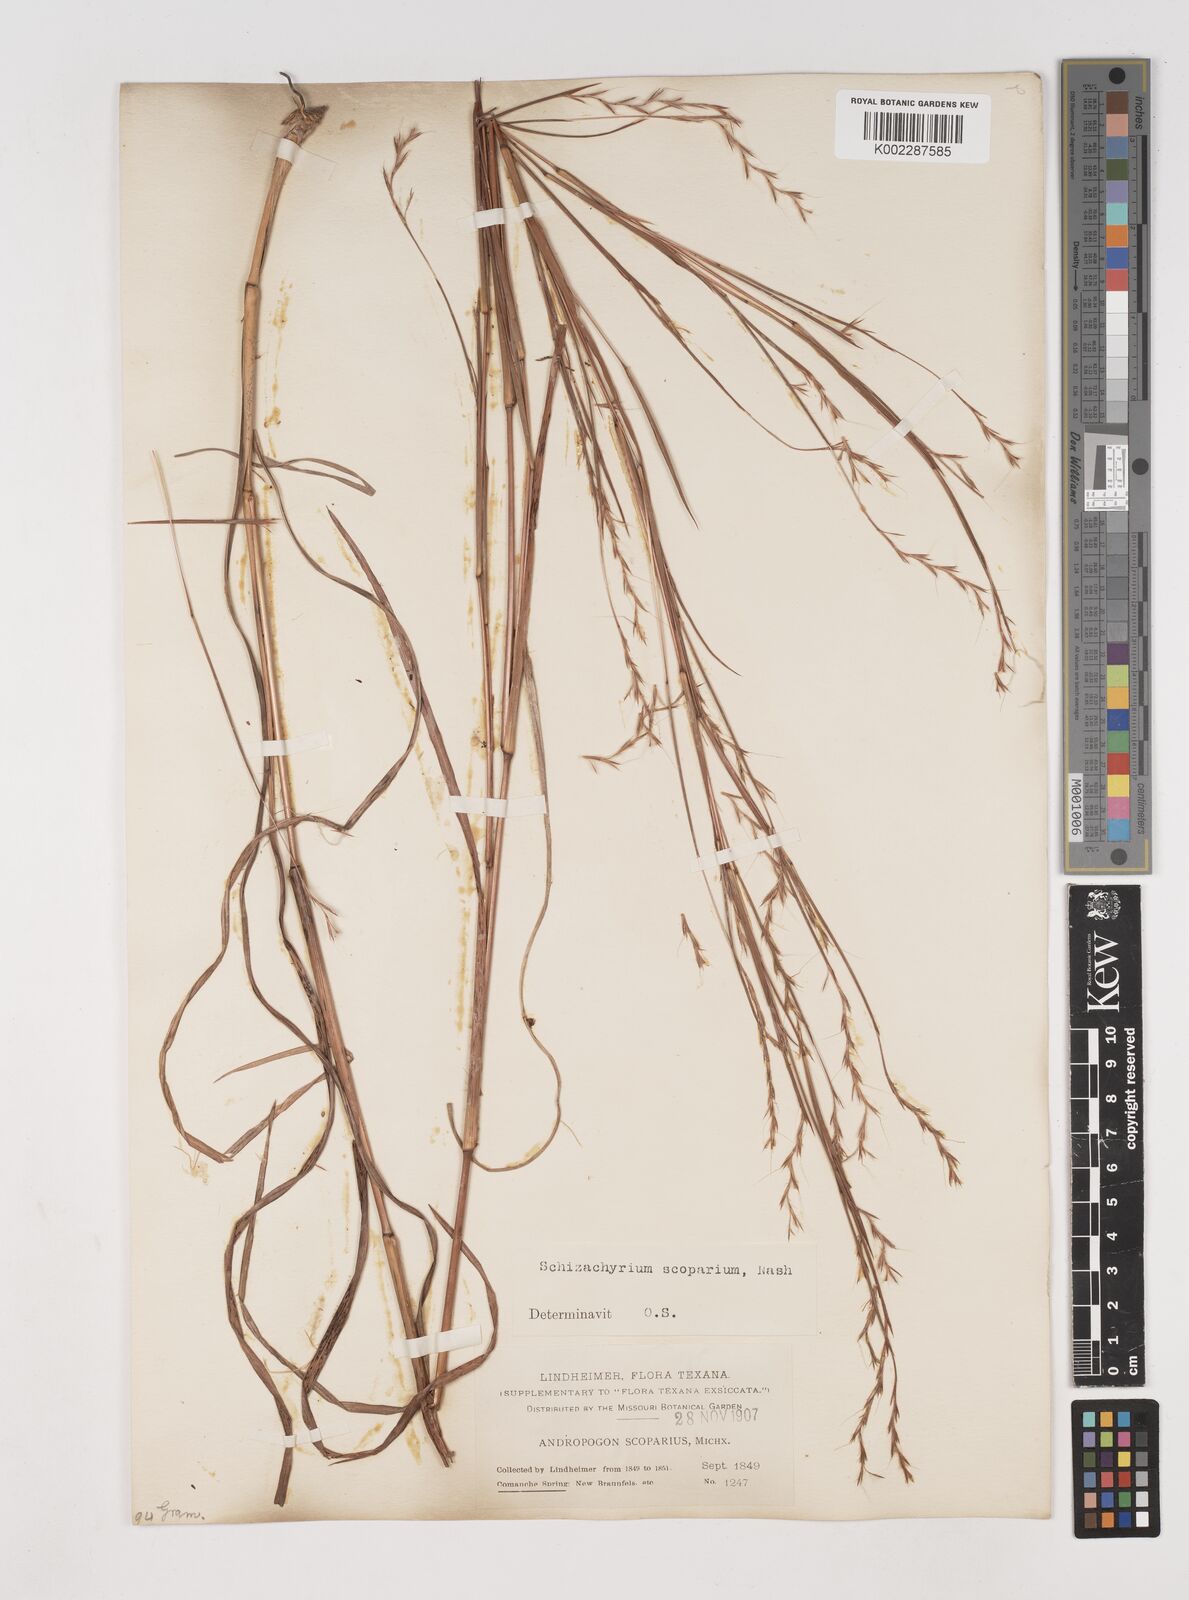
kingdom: Plantae
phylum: Tracheophyta
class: Liliopsida
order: Poales
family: Poaceae
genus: Schizachyrium
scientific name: Schizachyrium scoparium
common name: Little bluestem
